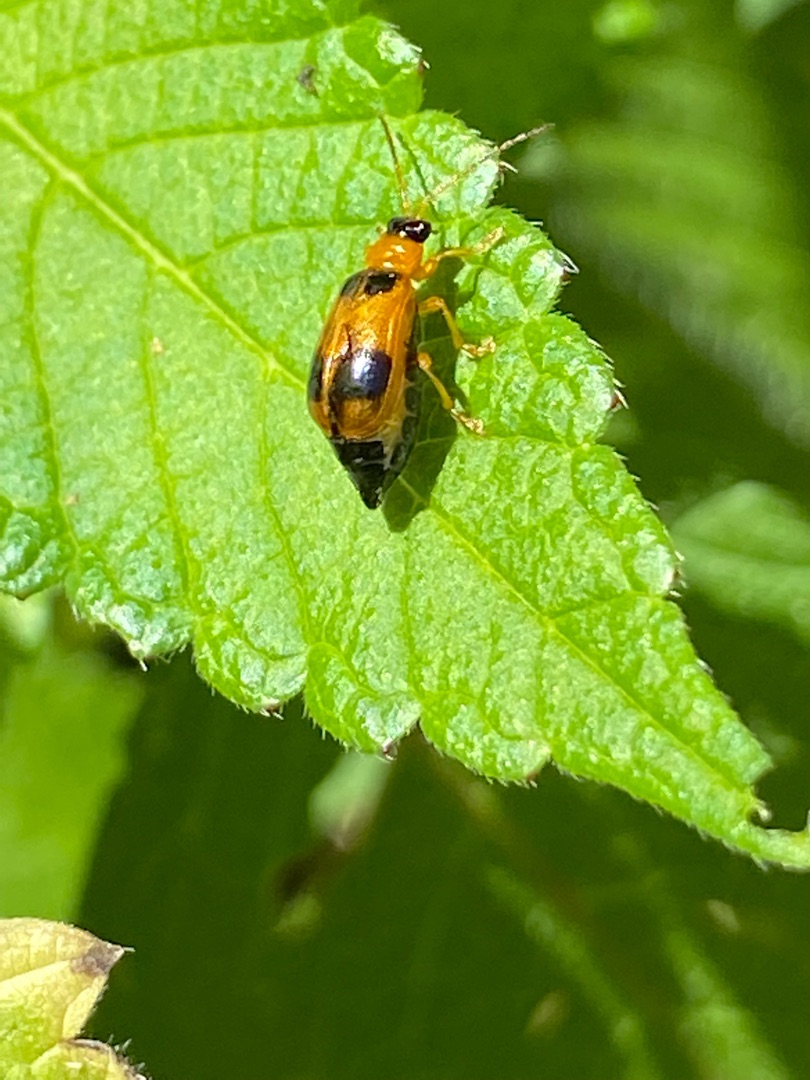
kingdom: Animalia
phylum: Arthropoda
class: Insecta
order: Coleoptera
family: Chrysomelidae
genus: Phyllobrotica
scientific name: Phyllobrotica quadrimaculata
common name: Sortplettet bladbille
